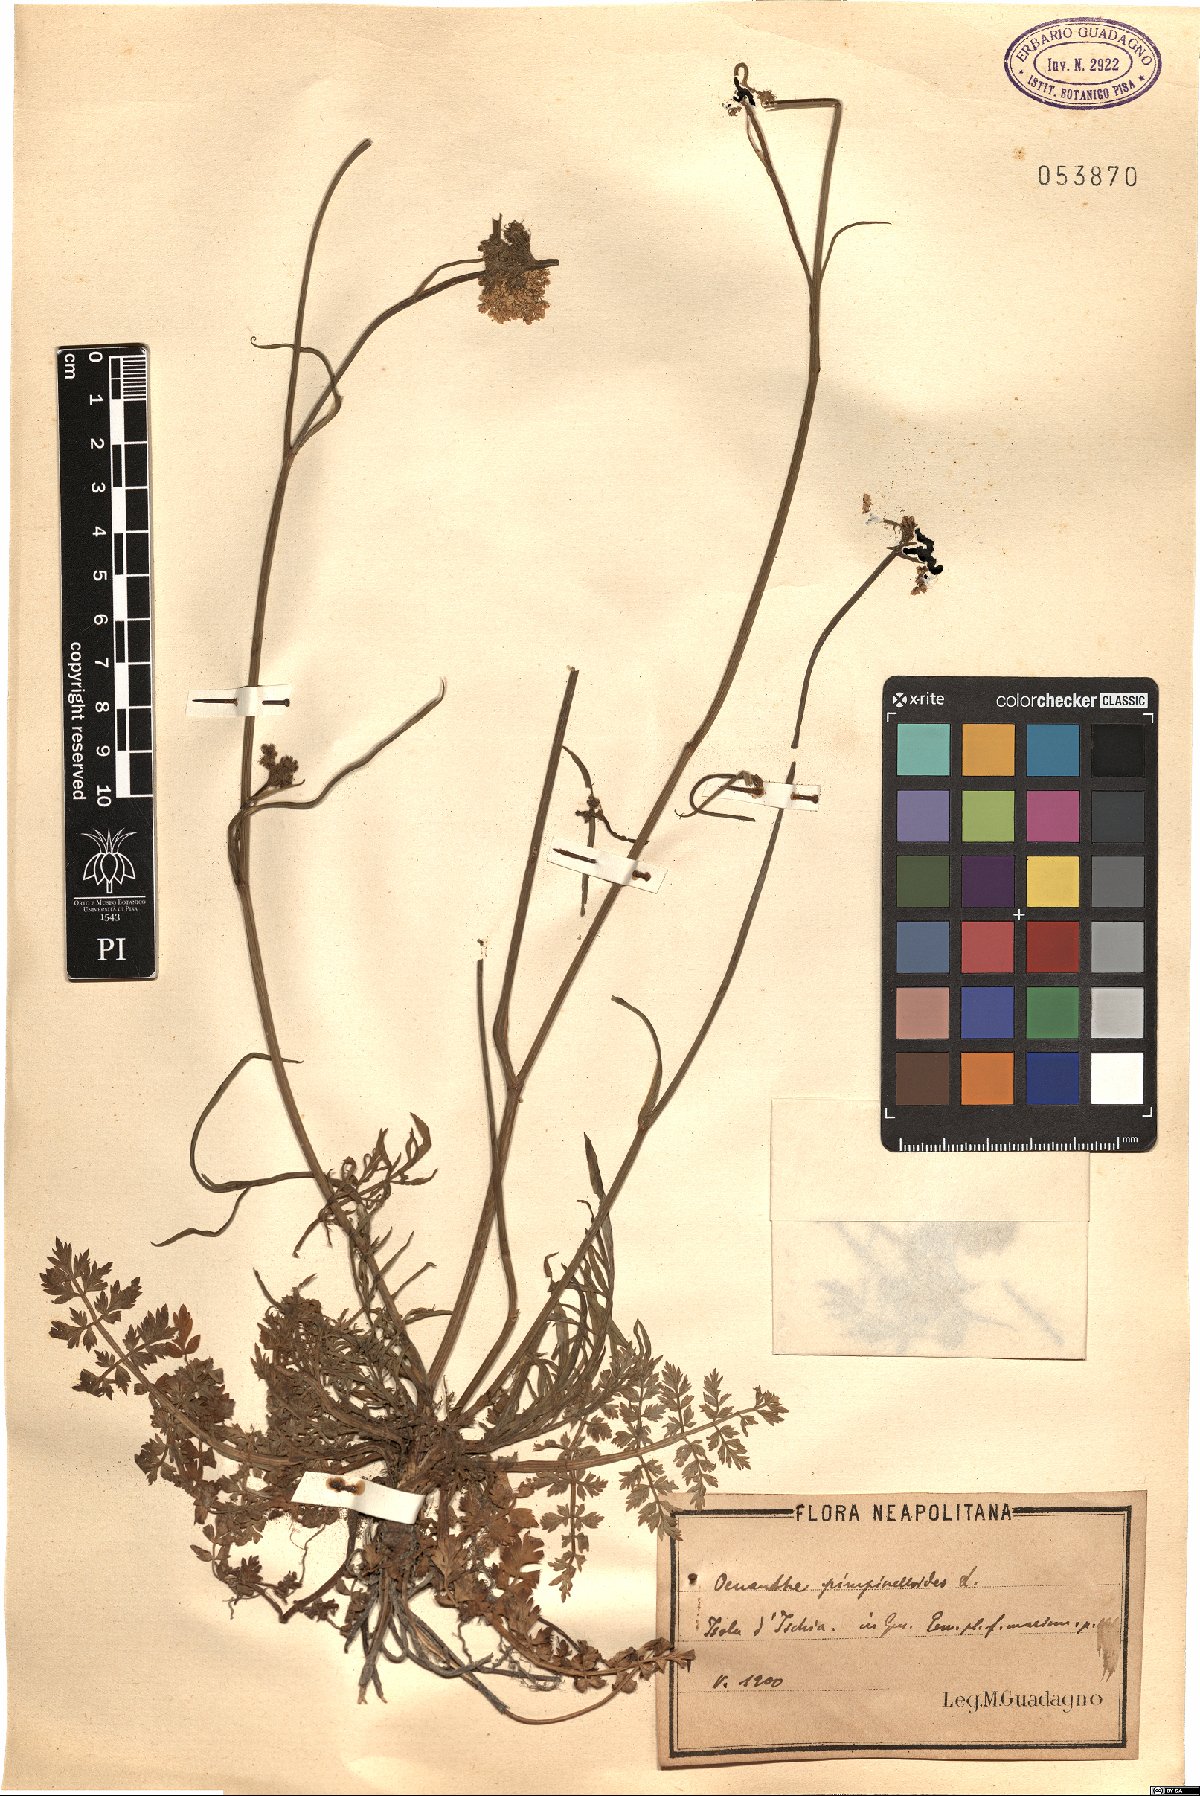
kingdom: Plantae
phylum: Tracheophyta
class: Magnoliopsida
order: Apiales
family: Apiaceae
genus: Oenanthe
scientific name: Oenanthe pimpinelloides
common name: Corky-fruited water-dropwort
